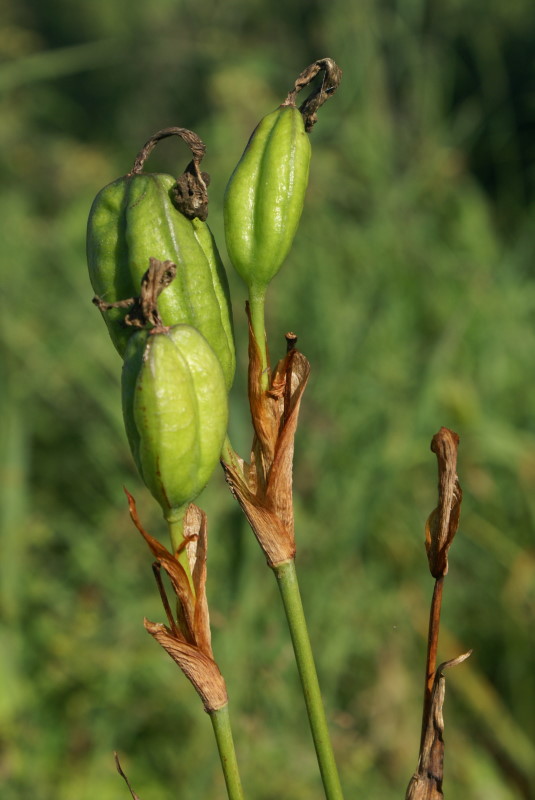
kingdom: Plantae
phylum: Tracheophyta
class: Liliopsida
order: Asparagales
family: Iridaceae
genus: Iris
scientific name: Iris setosa
